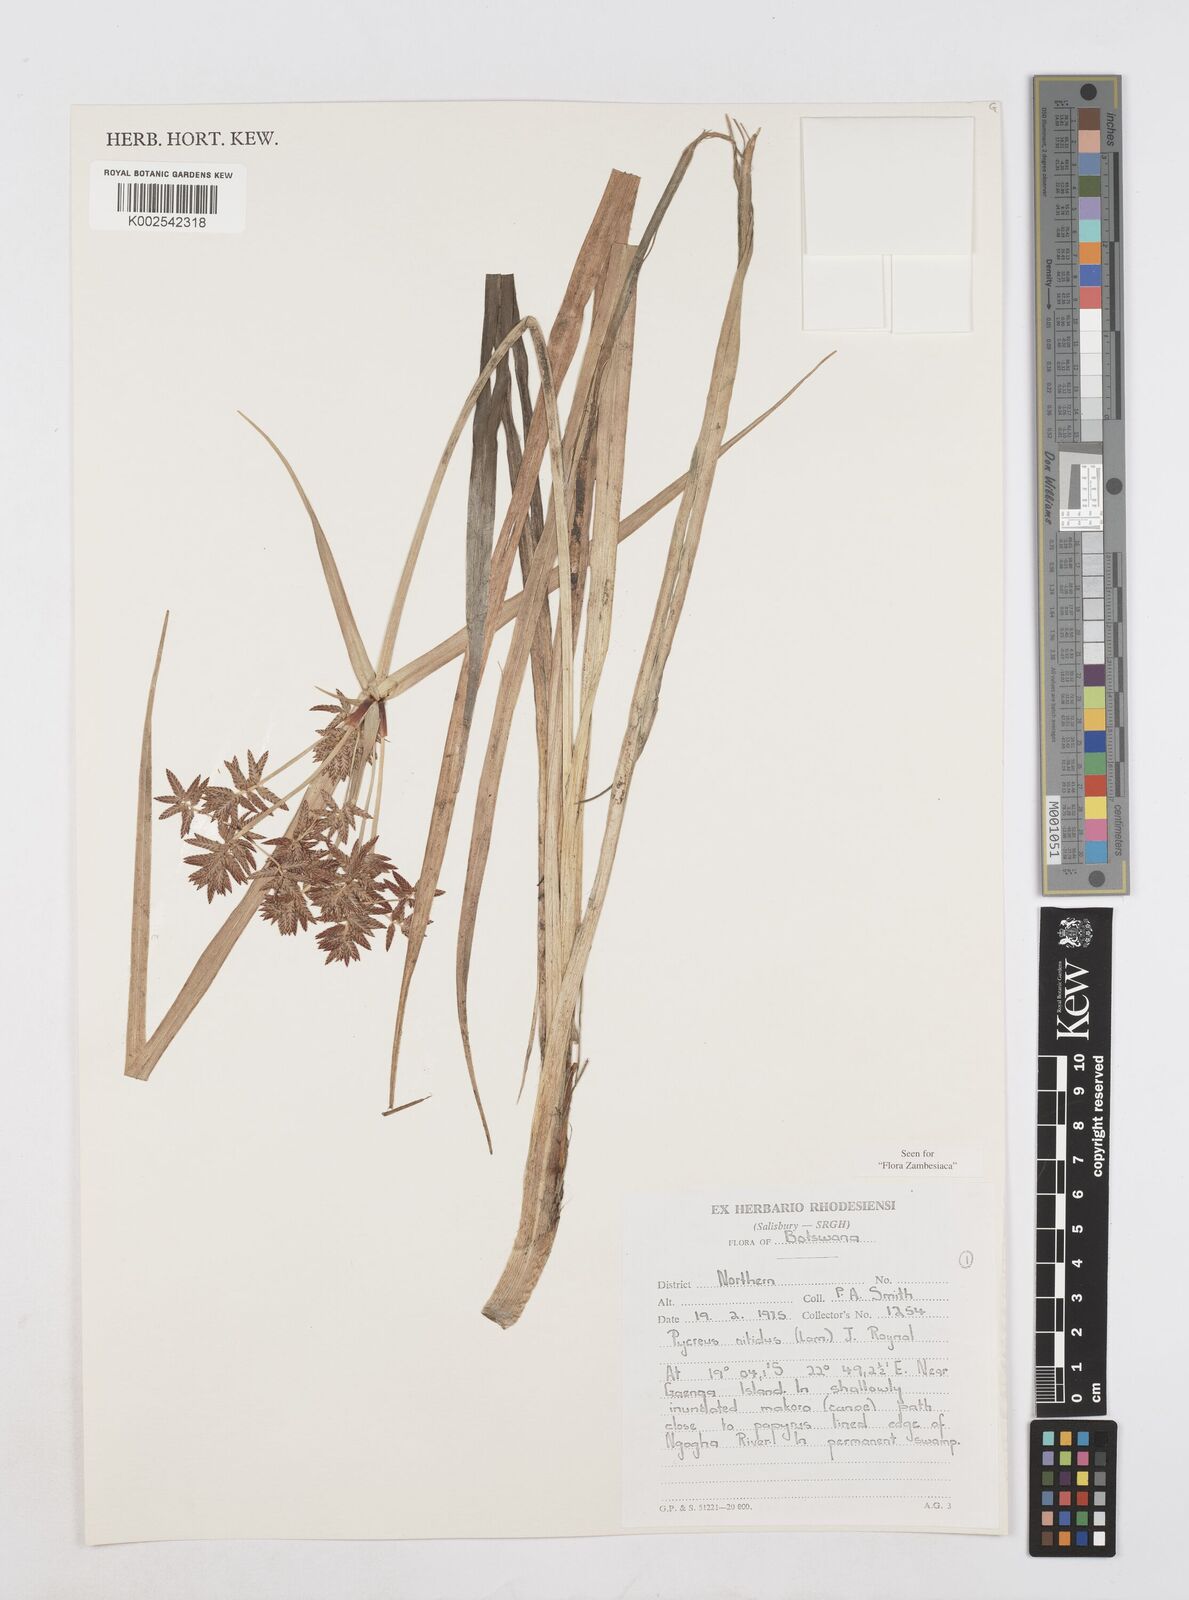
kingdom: Plantae
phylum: Tracheophyta
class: Liliopsida
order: Poales
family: Cyperaceae
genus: Cyperus
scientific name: Cyperus nitidus
